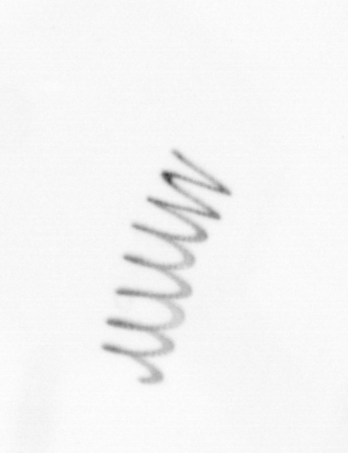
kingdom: Chromista
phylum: Ochrophyta
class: Bacillariophyceae
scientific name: Bacillariophyceae
